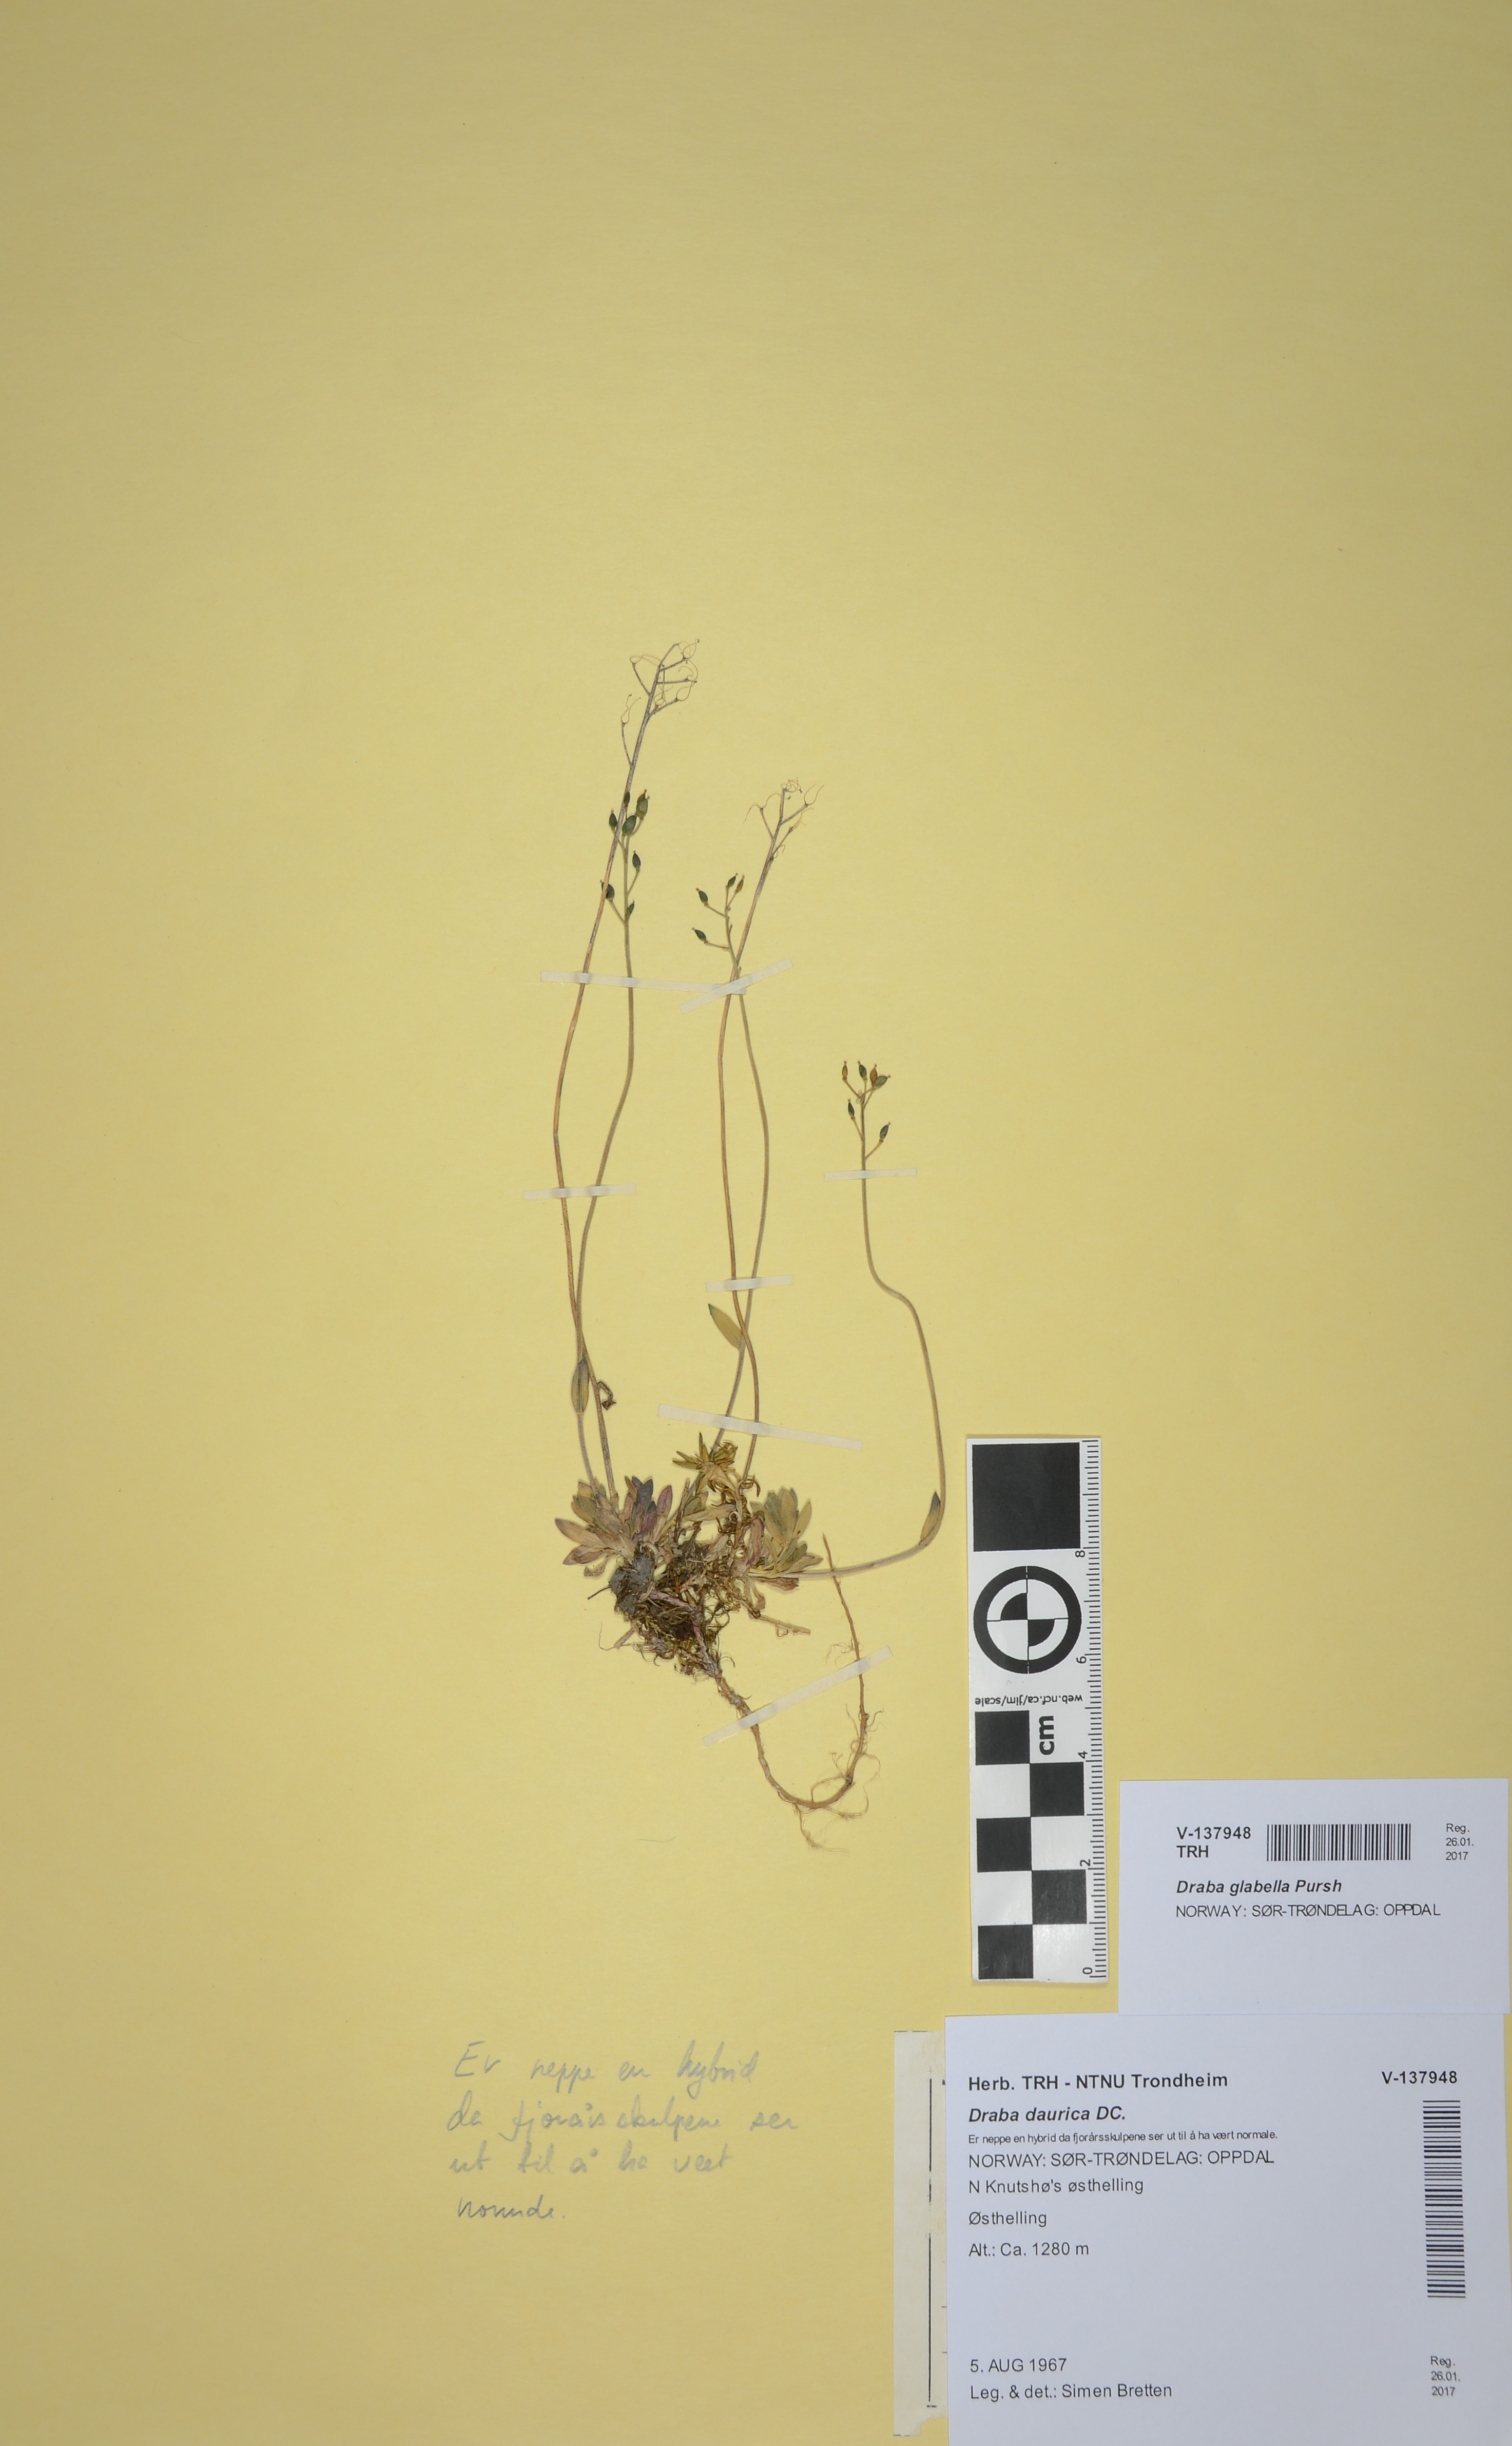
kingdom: Plantae
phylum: Tracheophyta
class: Magnoliopsida
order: Brassicales
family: Brassicaceae
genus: Draba
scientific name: Draba glabella
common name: Glaucous draba
